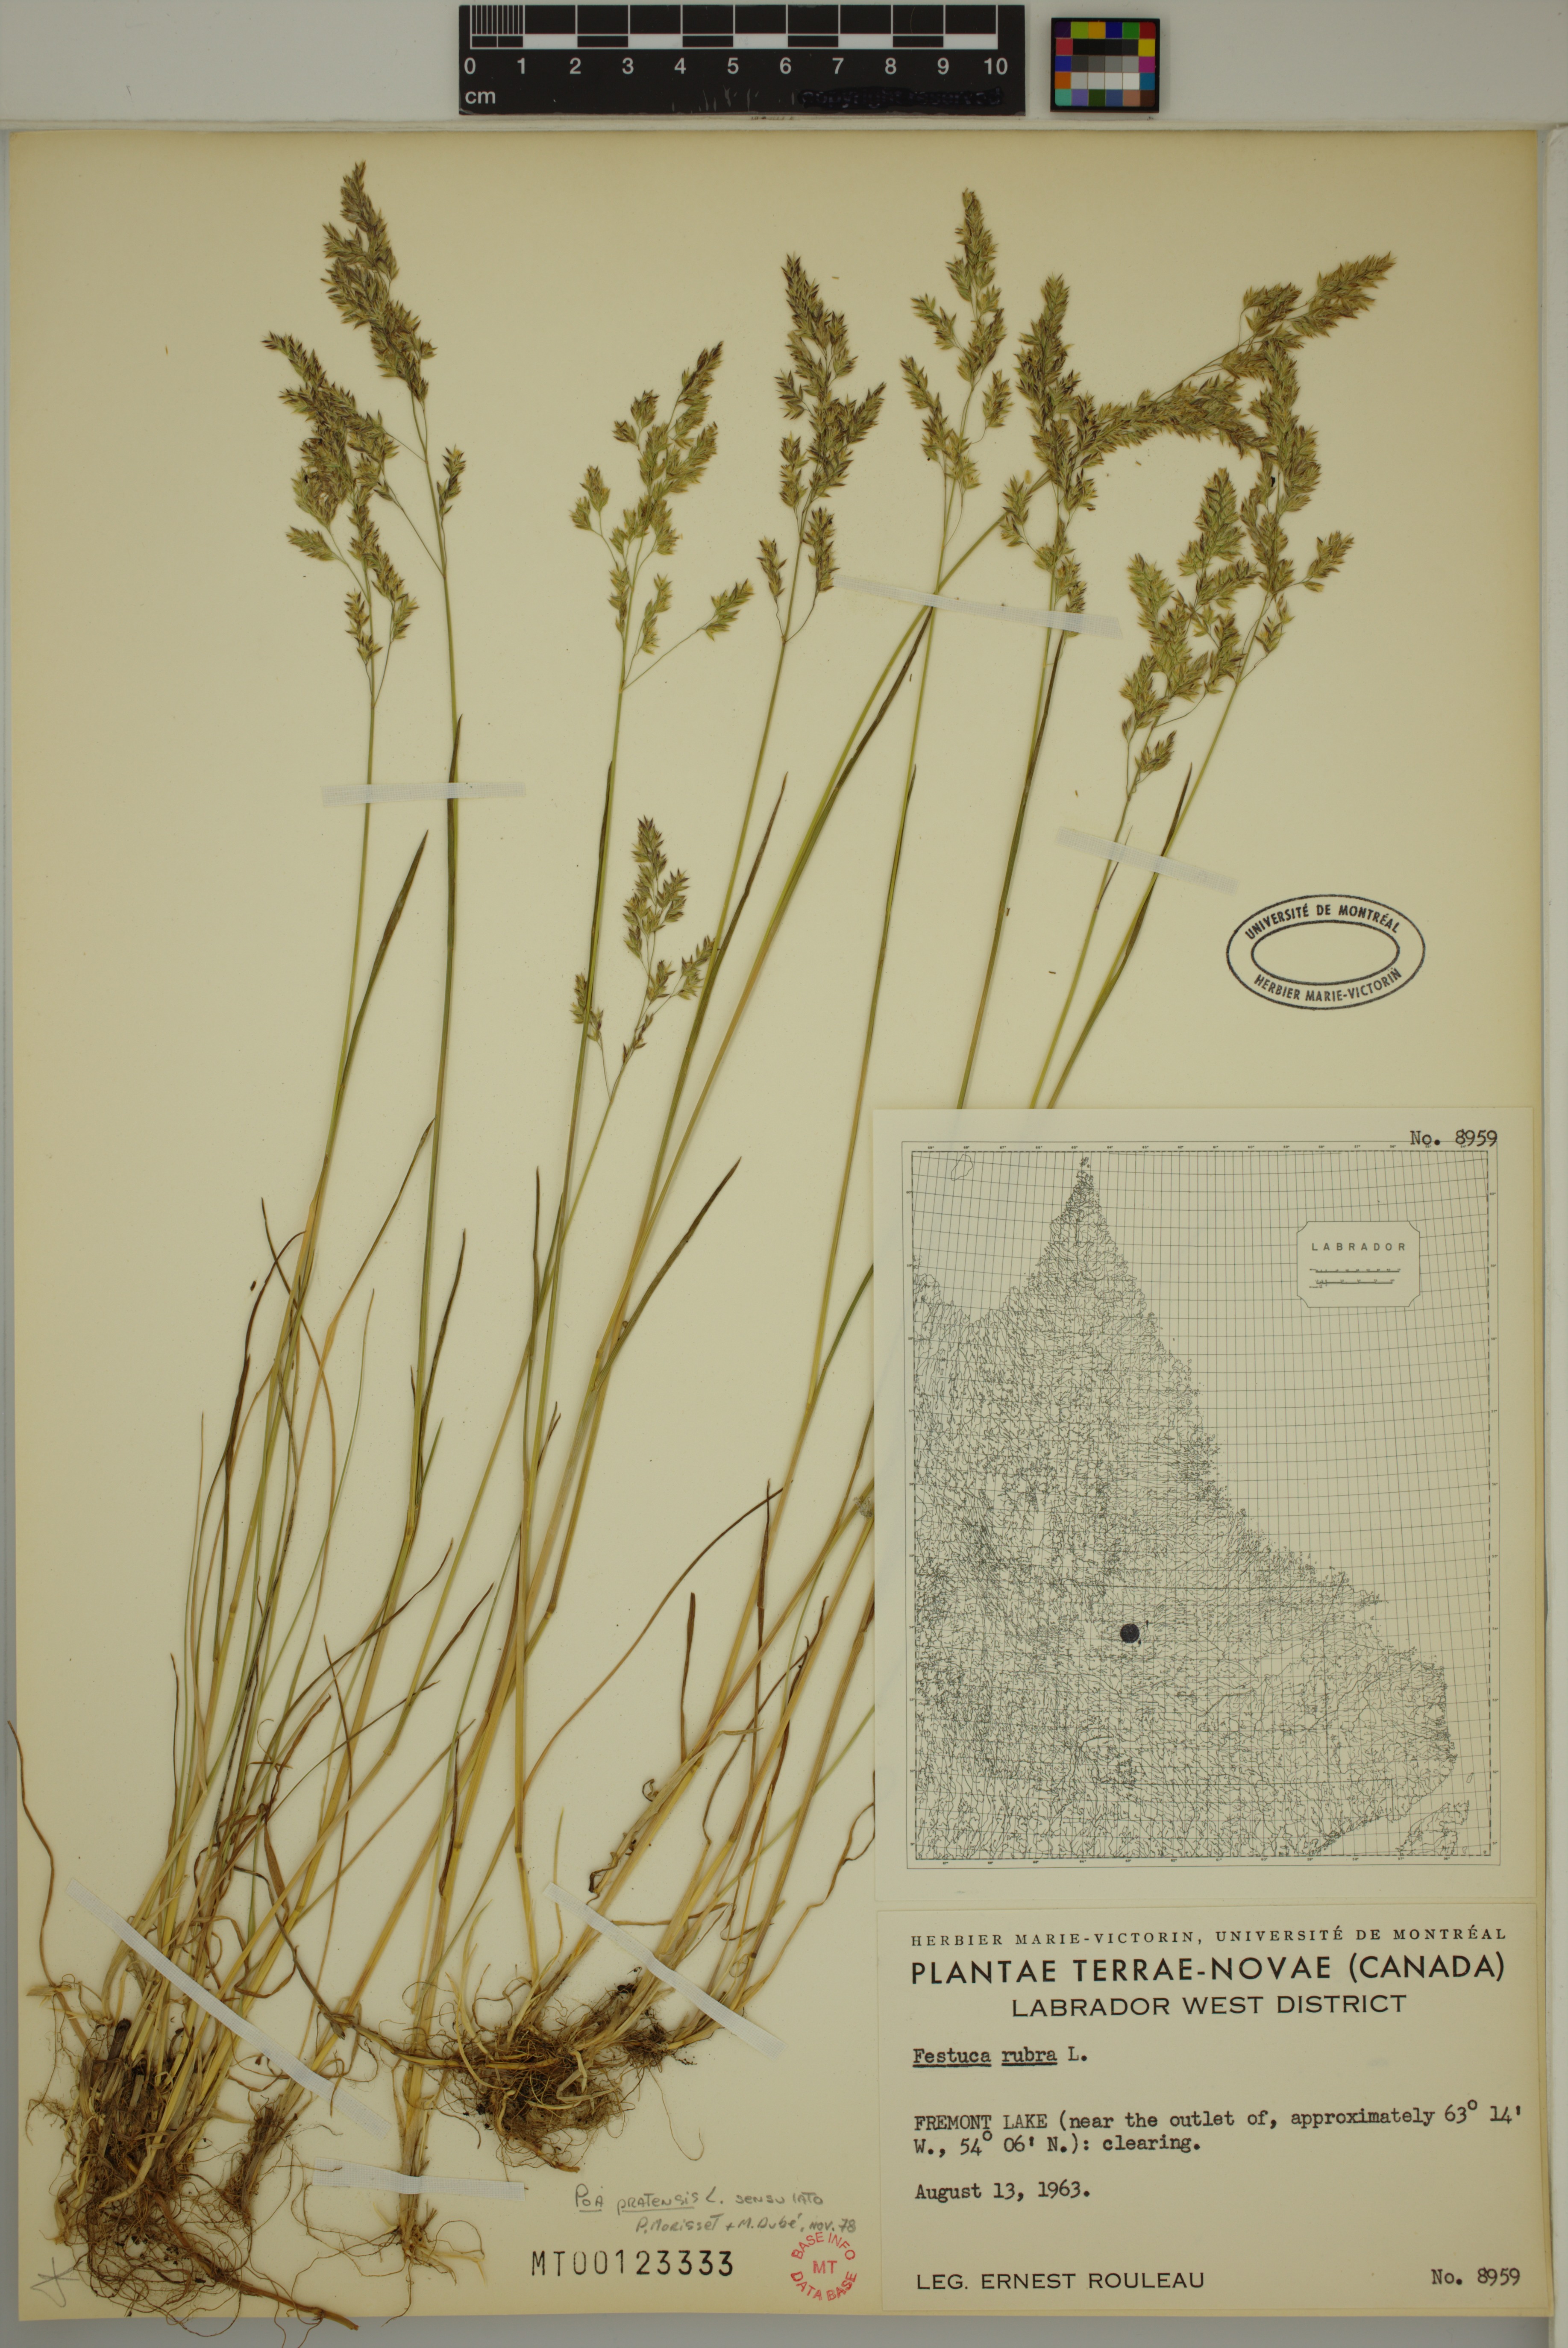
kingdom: Plantae
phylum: Tracheophyta
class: Liliopsida
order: Poales
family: Poaceae
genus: Poa
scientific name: Poa pratensis
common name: Kentucky bluegrass
